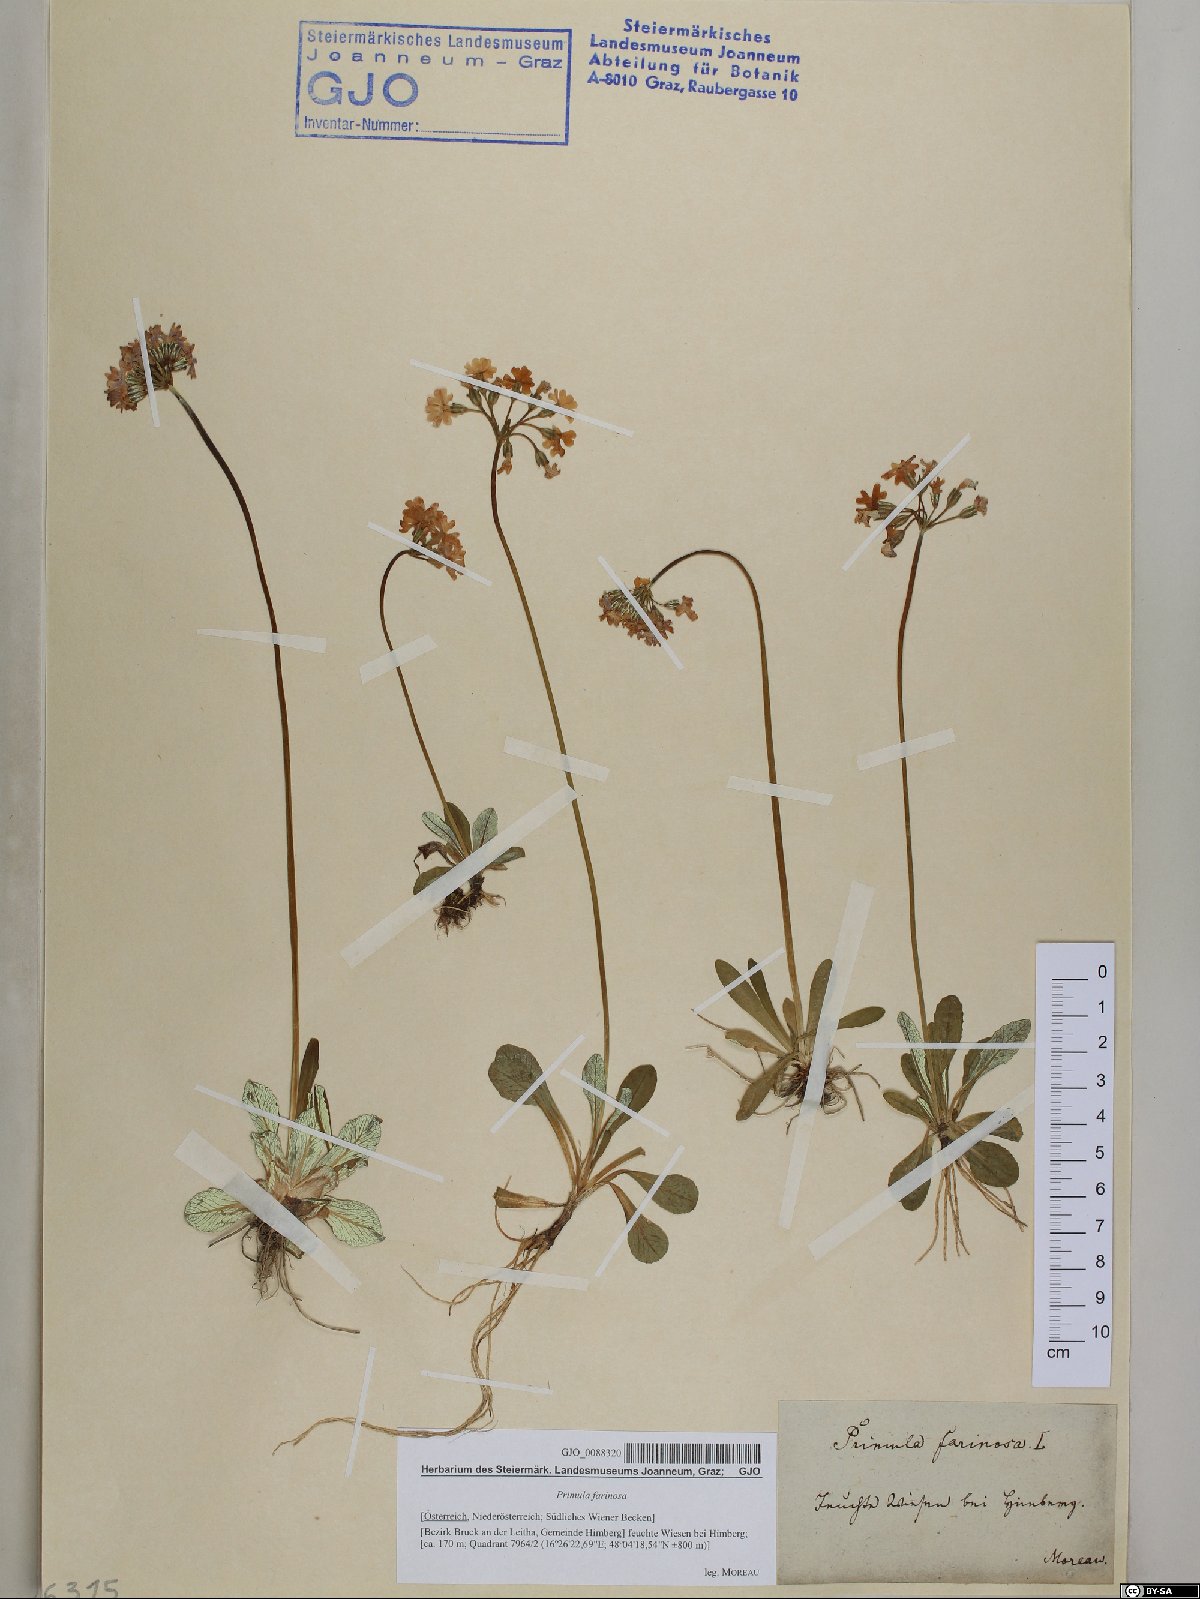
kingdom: Plantae
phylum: Tracheophyta
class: Magnoliopsida
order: Ericales
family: Primulaceae
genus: Primula
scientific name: Primula farinosa
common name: Bird's-eye primrose
